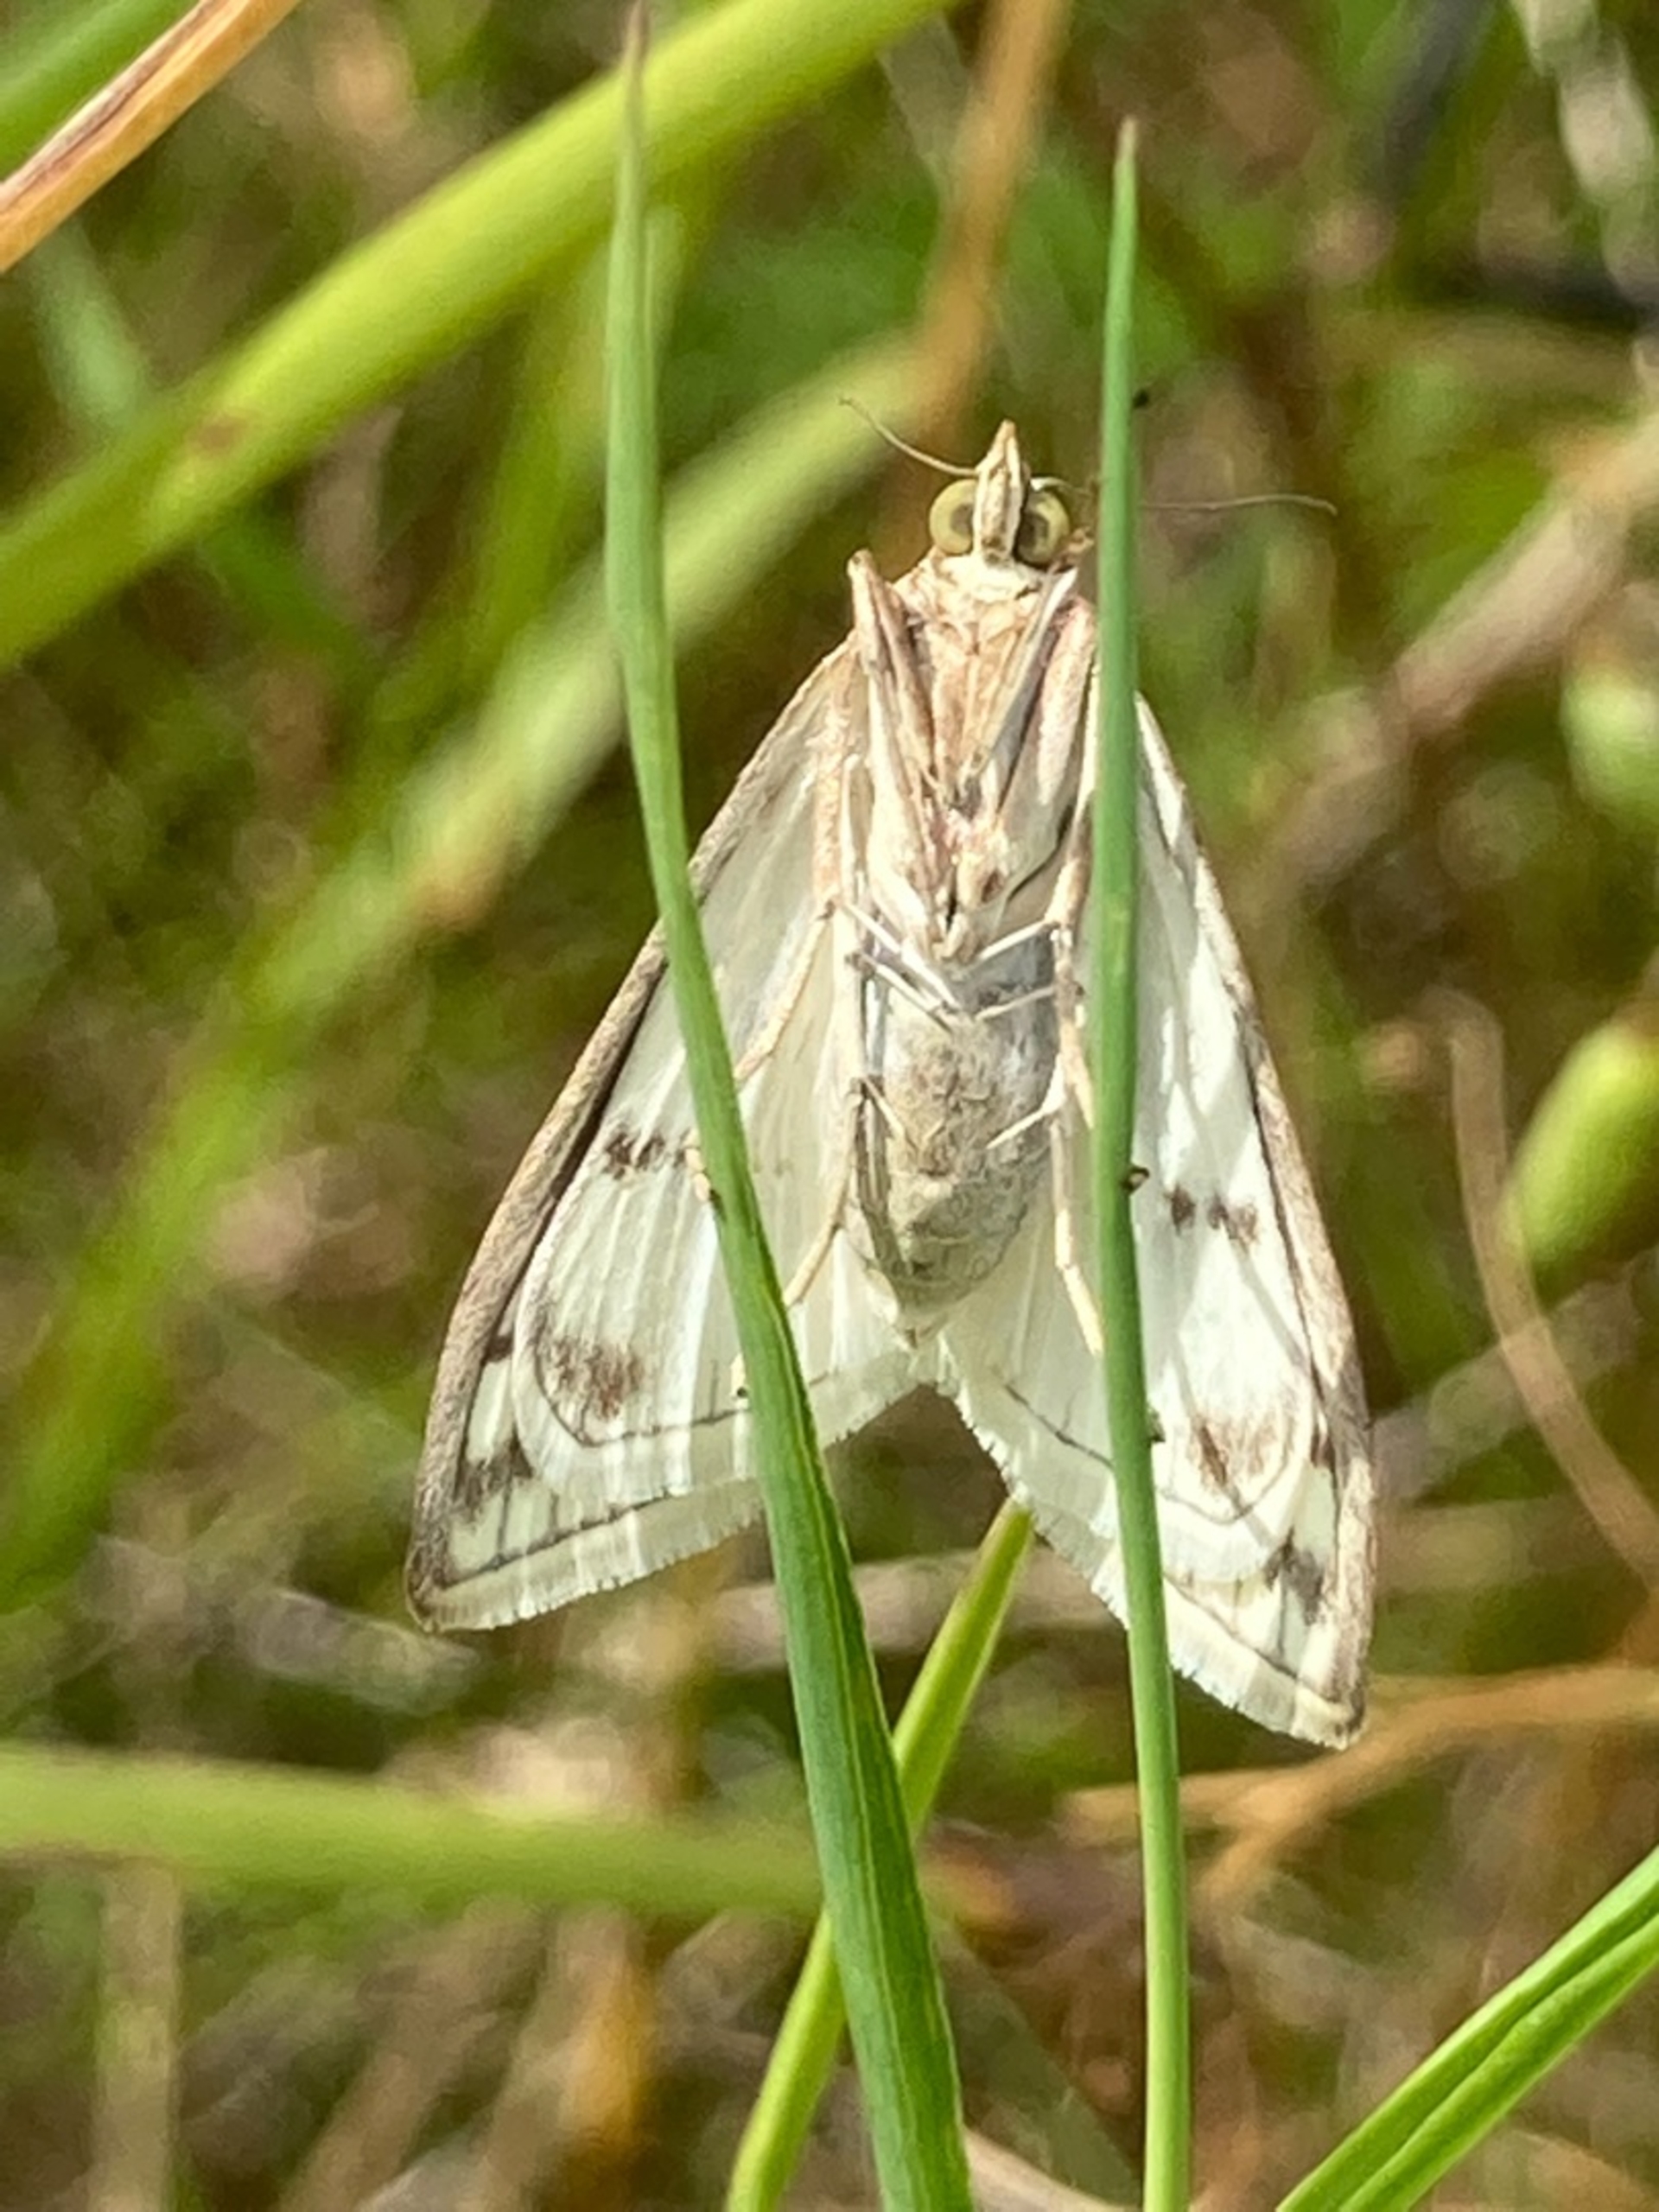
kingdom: Animalia
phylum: Arthropoda
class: Insecta
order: Lepidoptera
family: Geometridae
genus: Siona
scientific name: Siona lineata
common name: Hvidvingemåler
